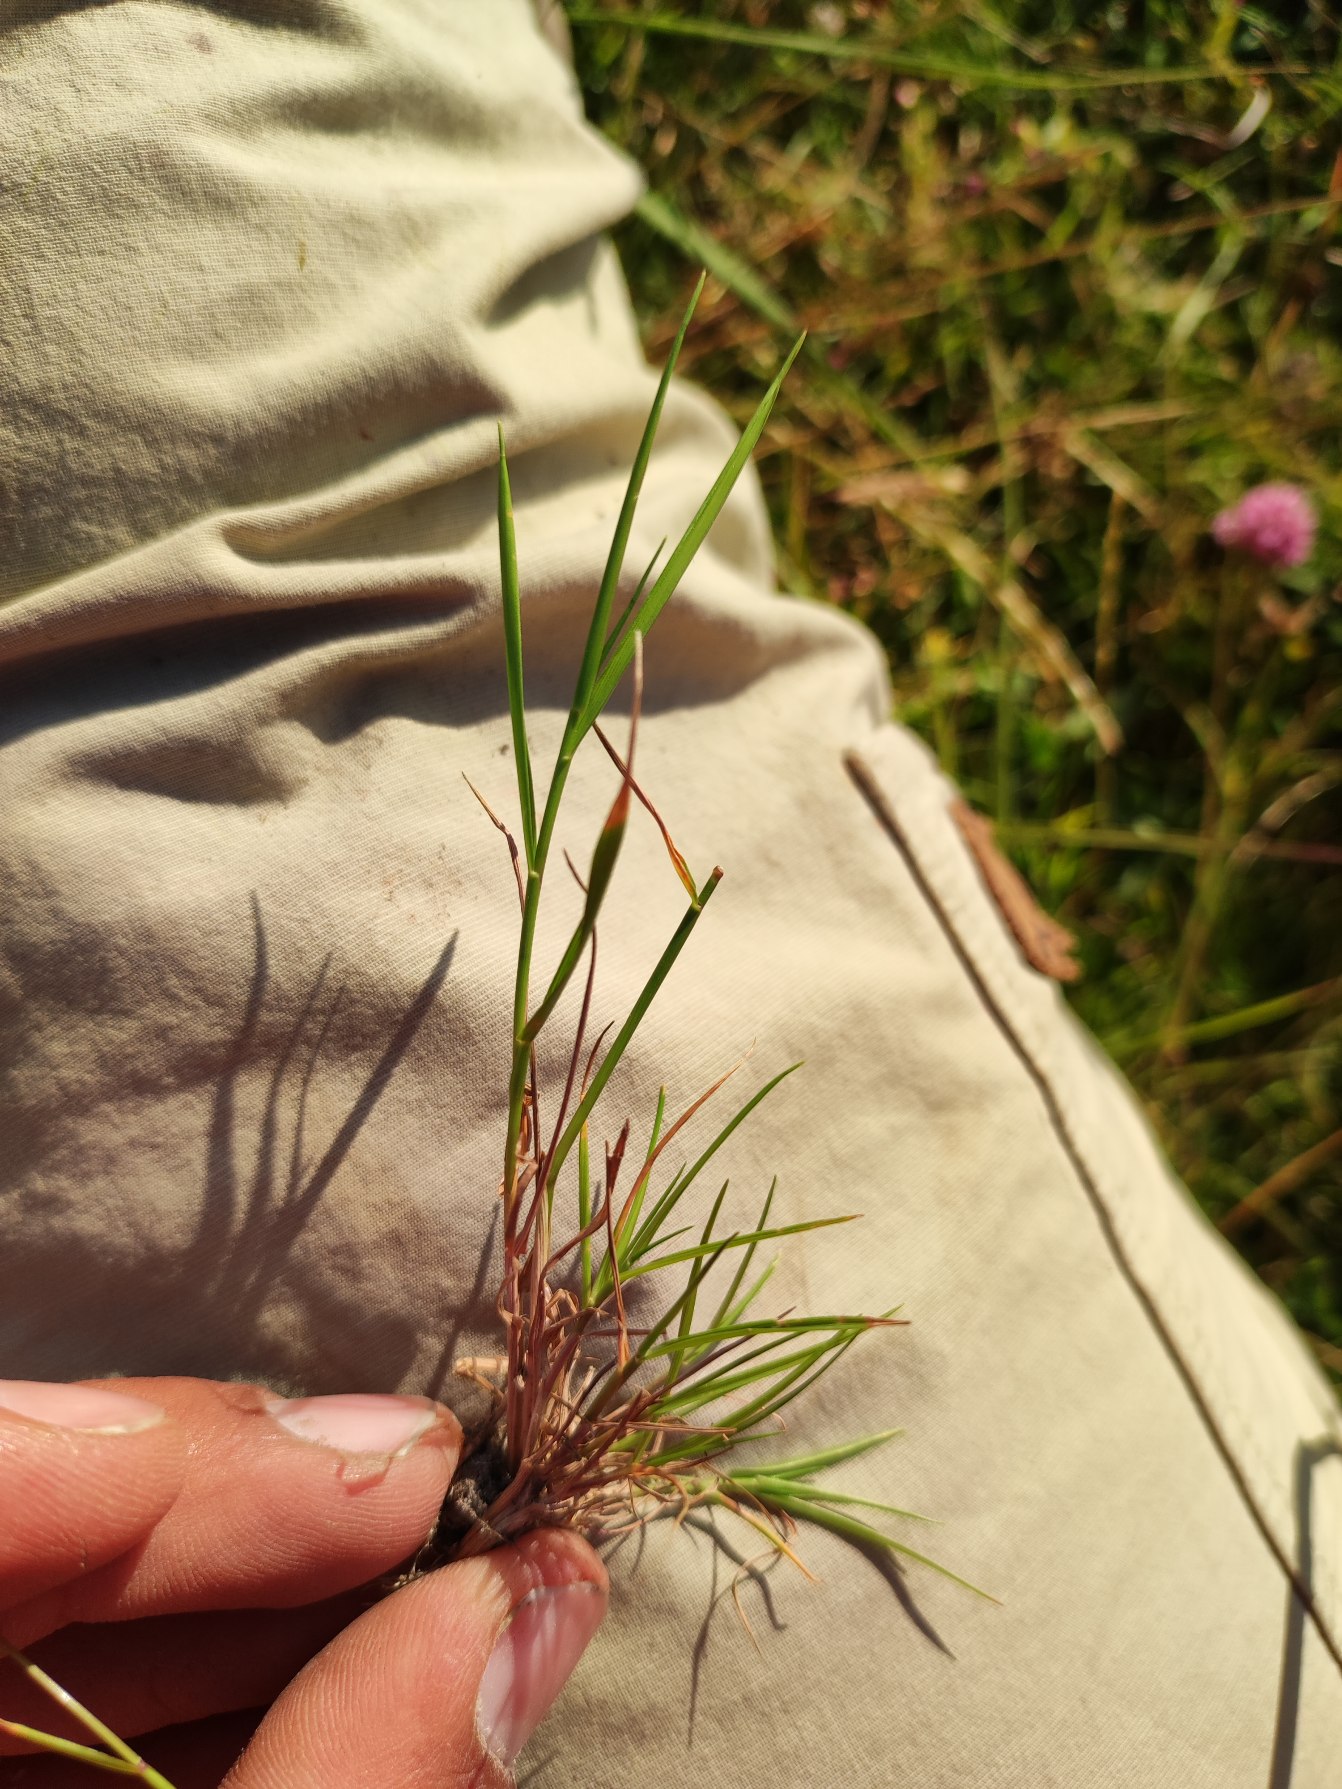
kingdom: Plantae
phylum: Tracheophyta
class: Liliopsida
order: Poales
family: Poaceae
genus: Agrostis
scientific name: Agrostis capillaris
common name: Almindelig hvene
